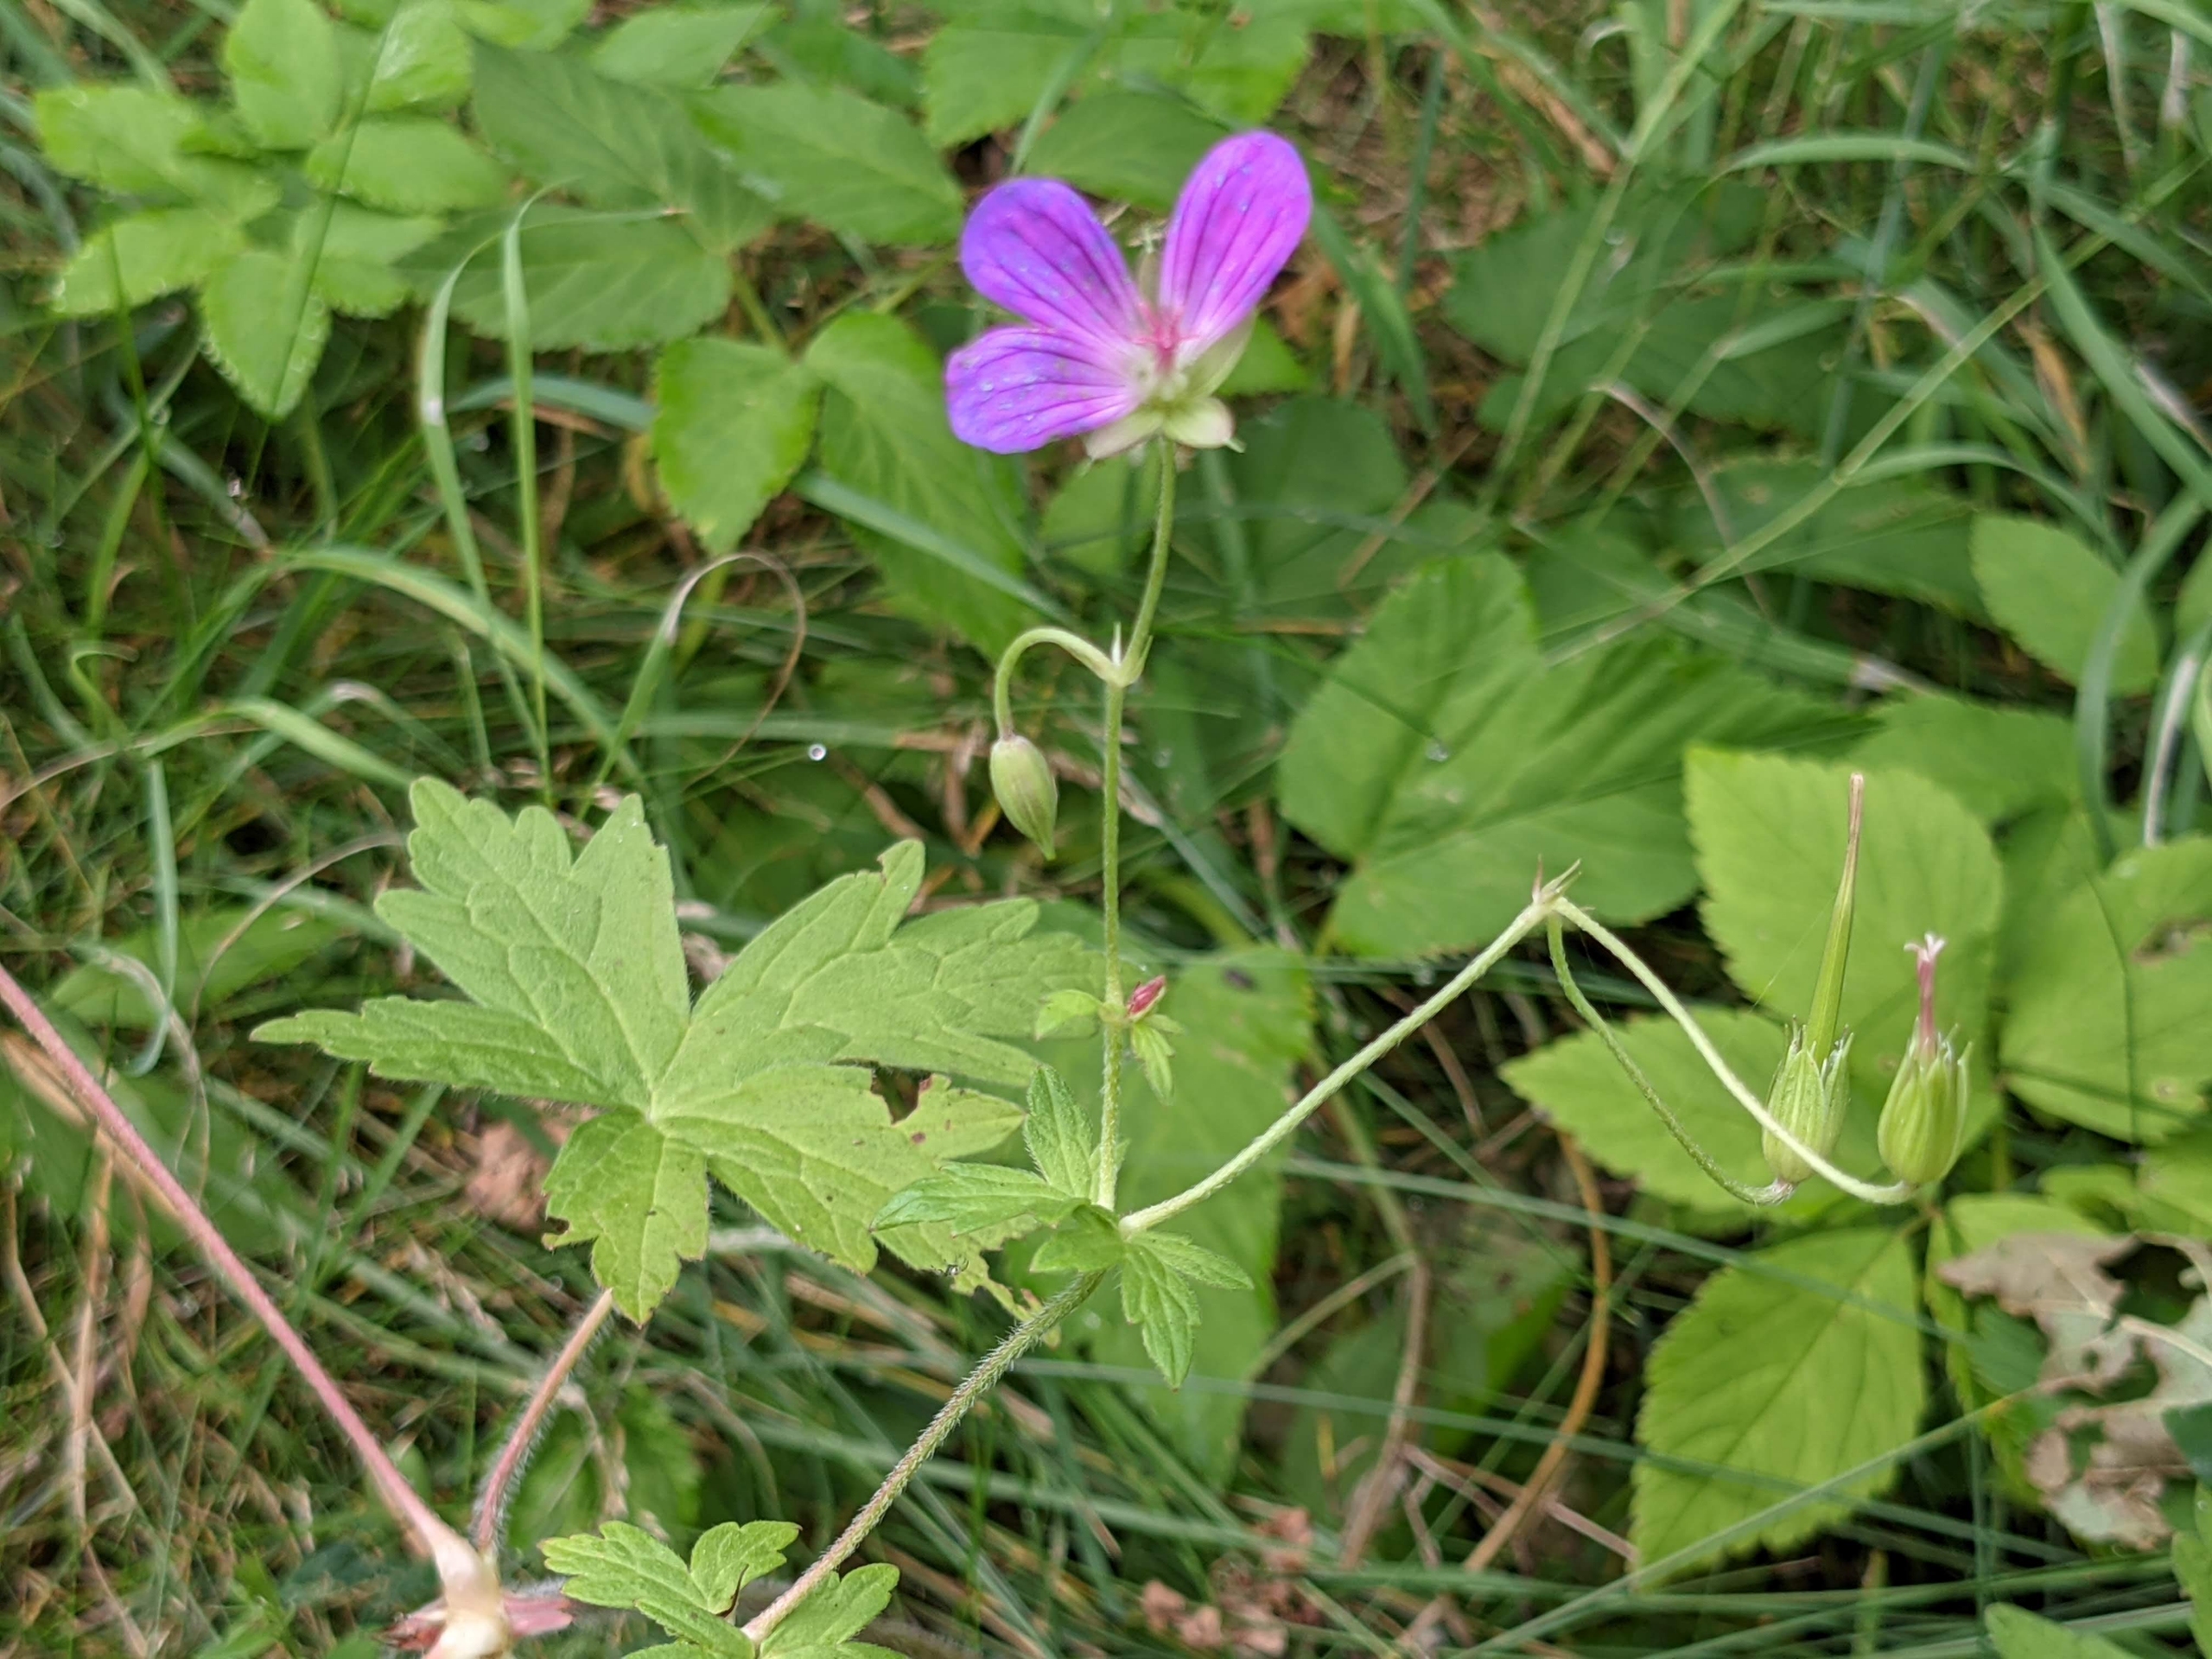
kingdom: Plantae
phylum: Tracheophyta
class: Magnoliopsida
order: Geraniales
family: Geraniaceae
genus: Geranium
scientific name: Geranium palustre
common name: Kær-storkenæb
